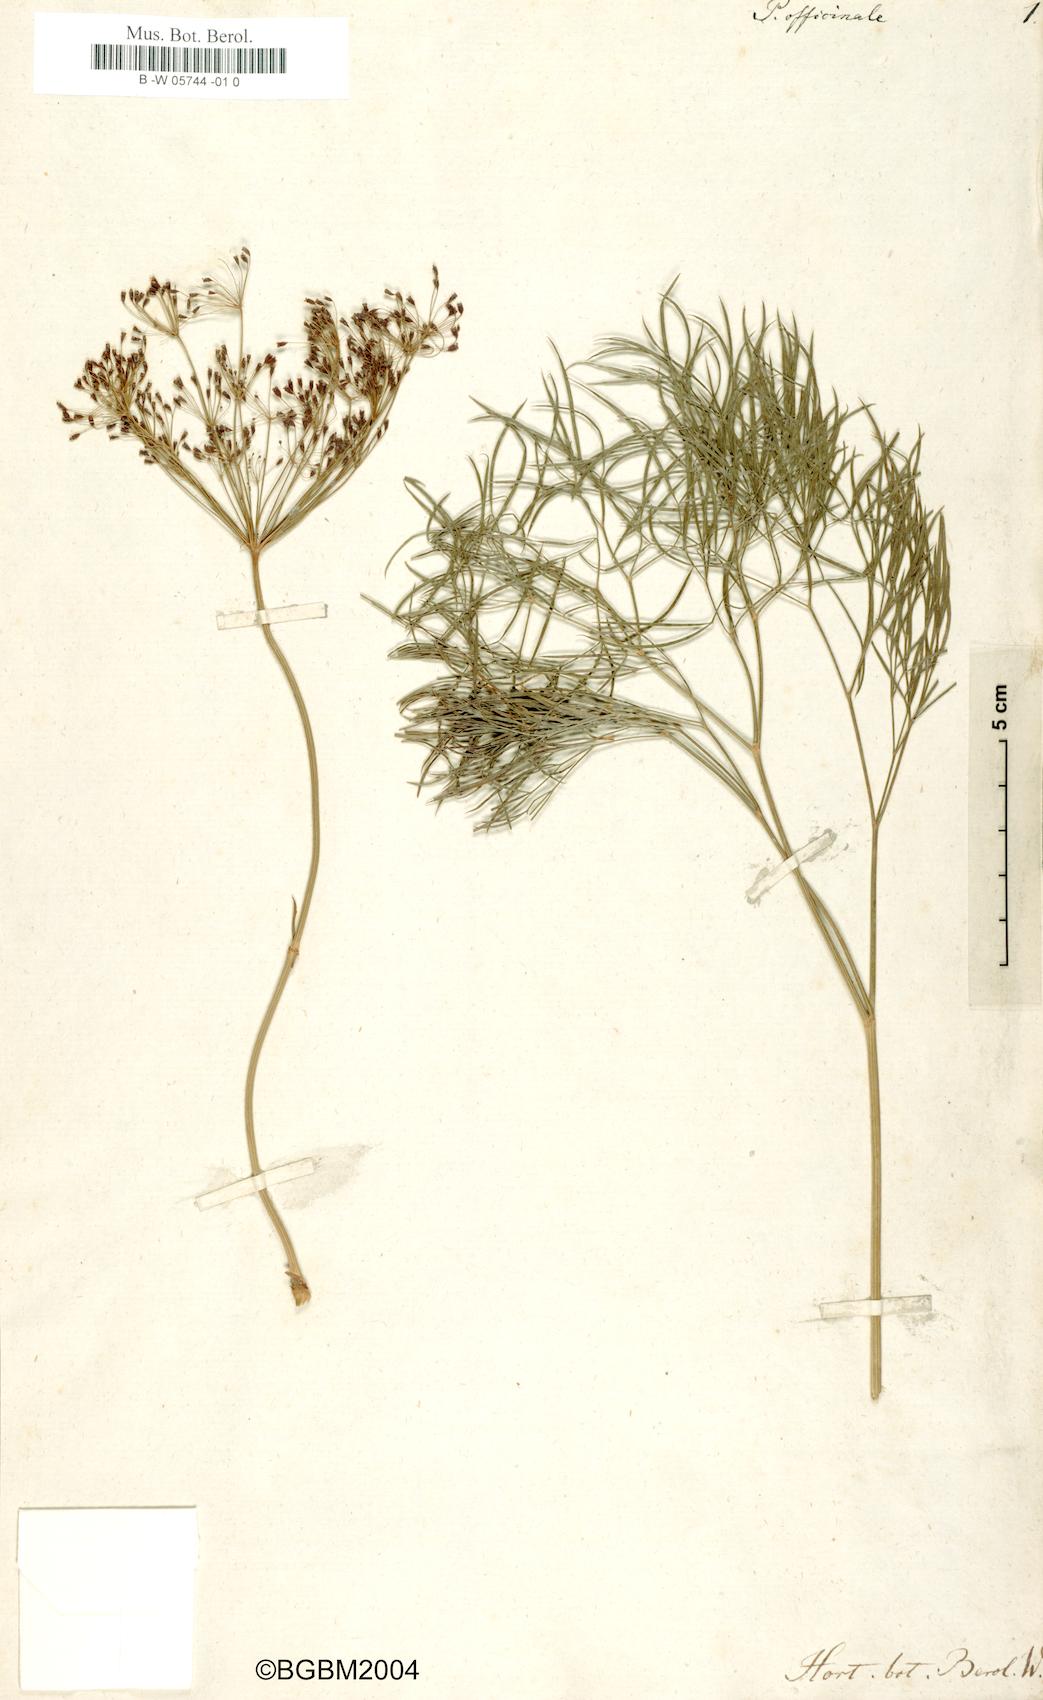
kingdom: Plantae
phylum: Tracheophyta
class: Magnoliopsida
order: Apiales
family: Apiaceae
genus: Peucedanum
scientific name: Peucedanum officinale
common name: Sulphurweed
